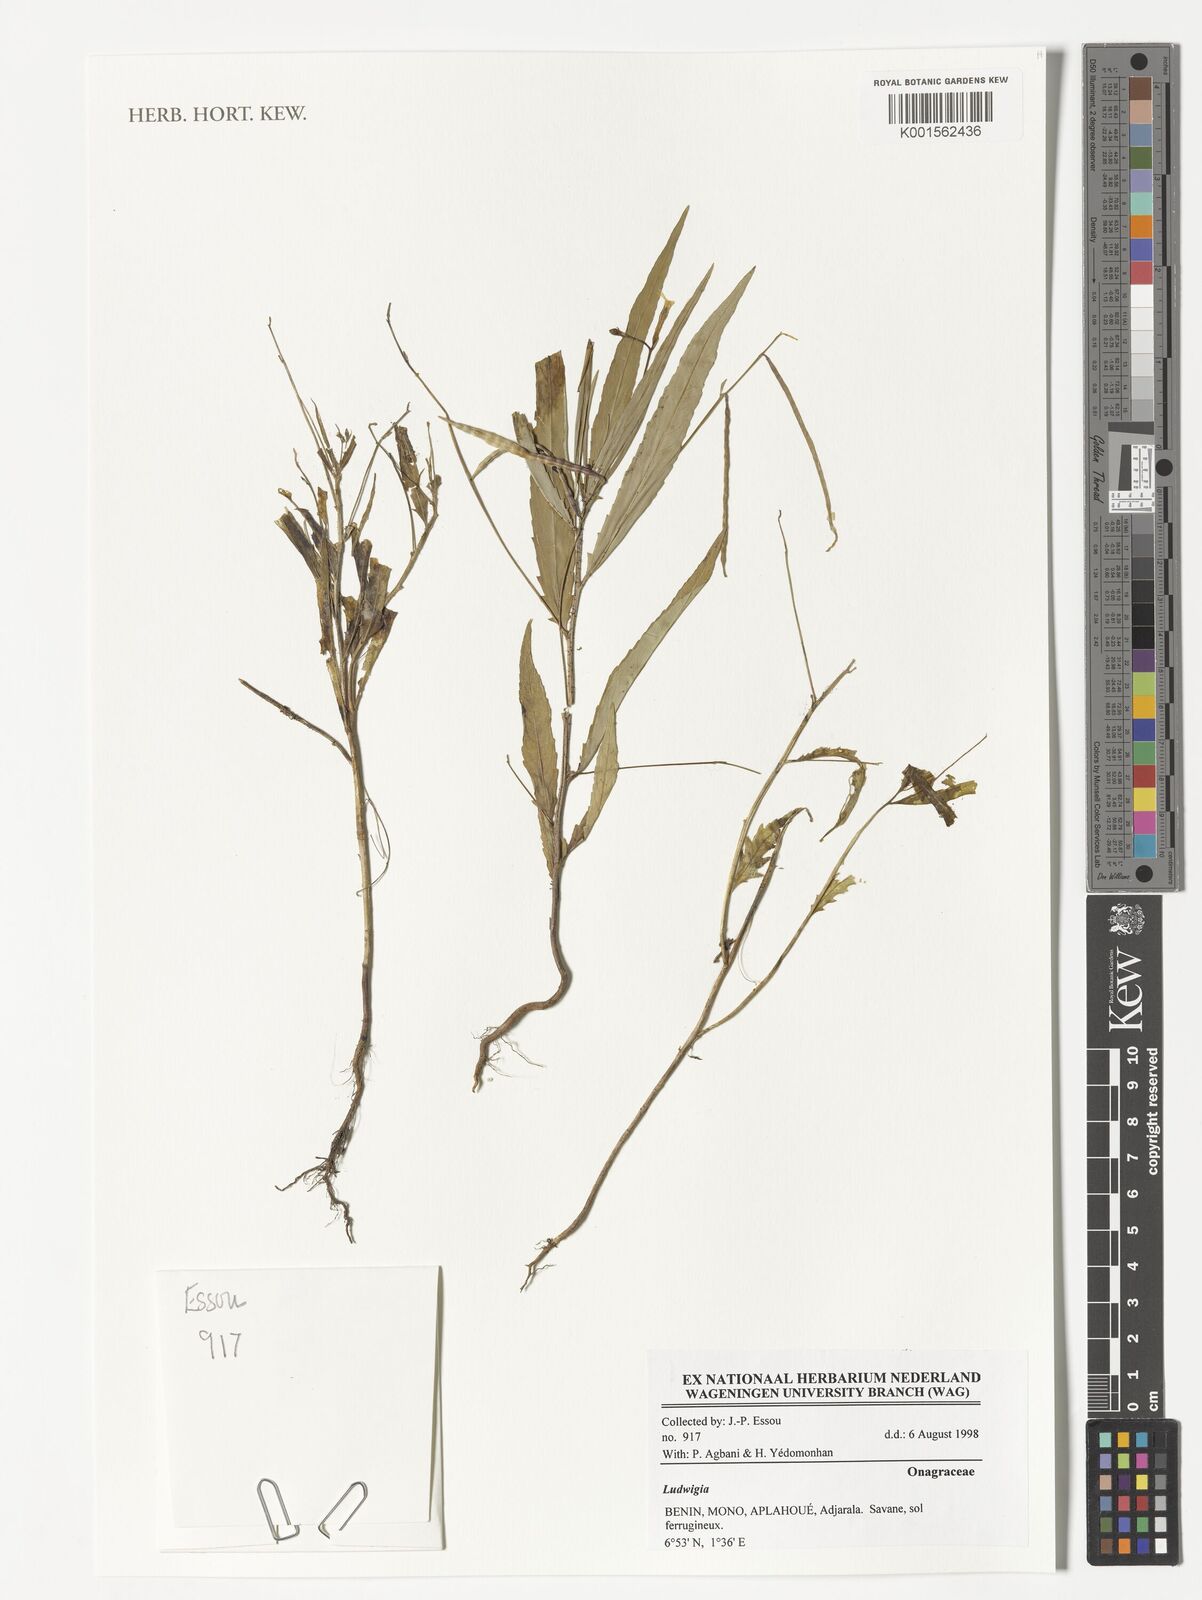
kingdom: Plantae
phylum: Tracheophyta
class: Magnoliopsida
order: Myrtales
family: Onagraceae
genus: Ludwigia
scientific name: Ludwigia
